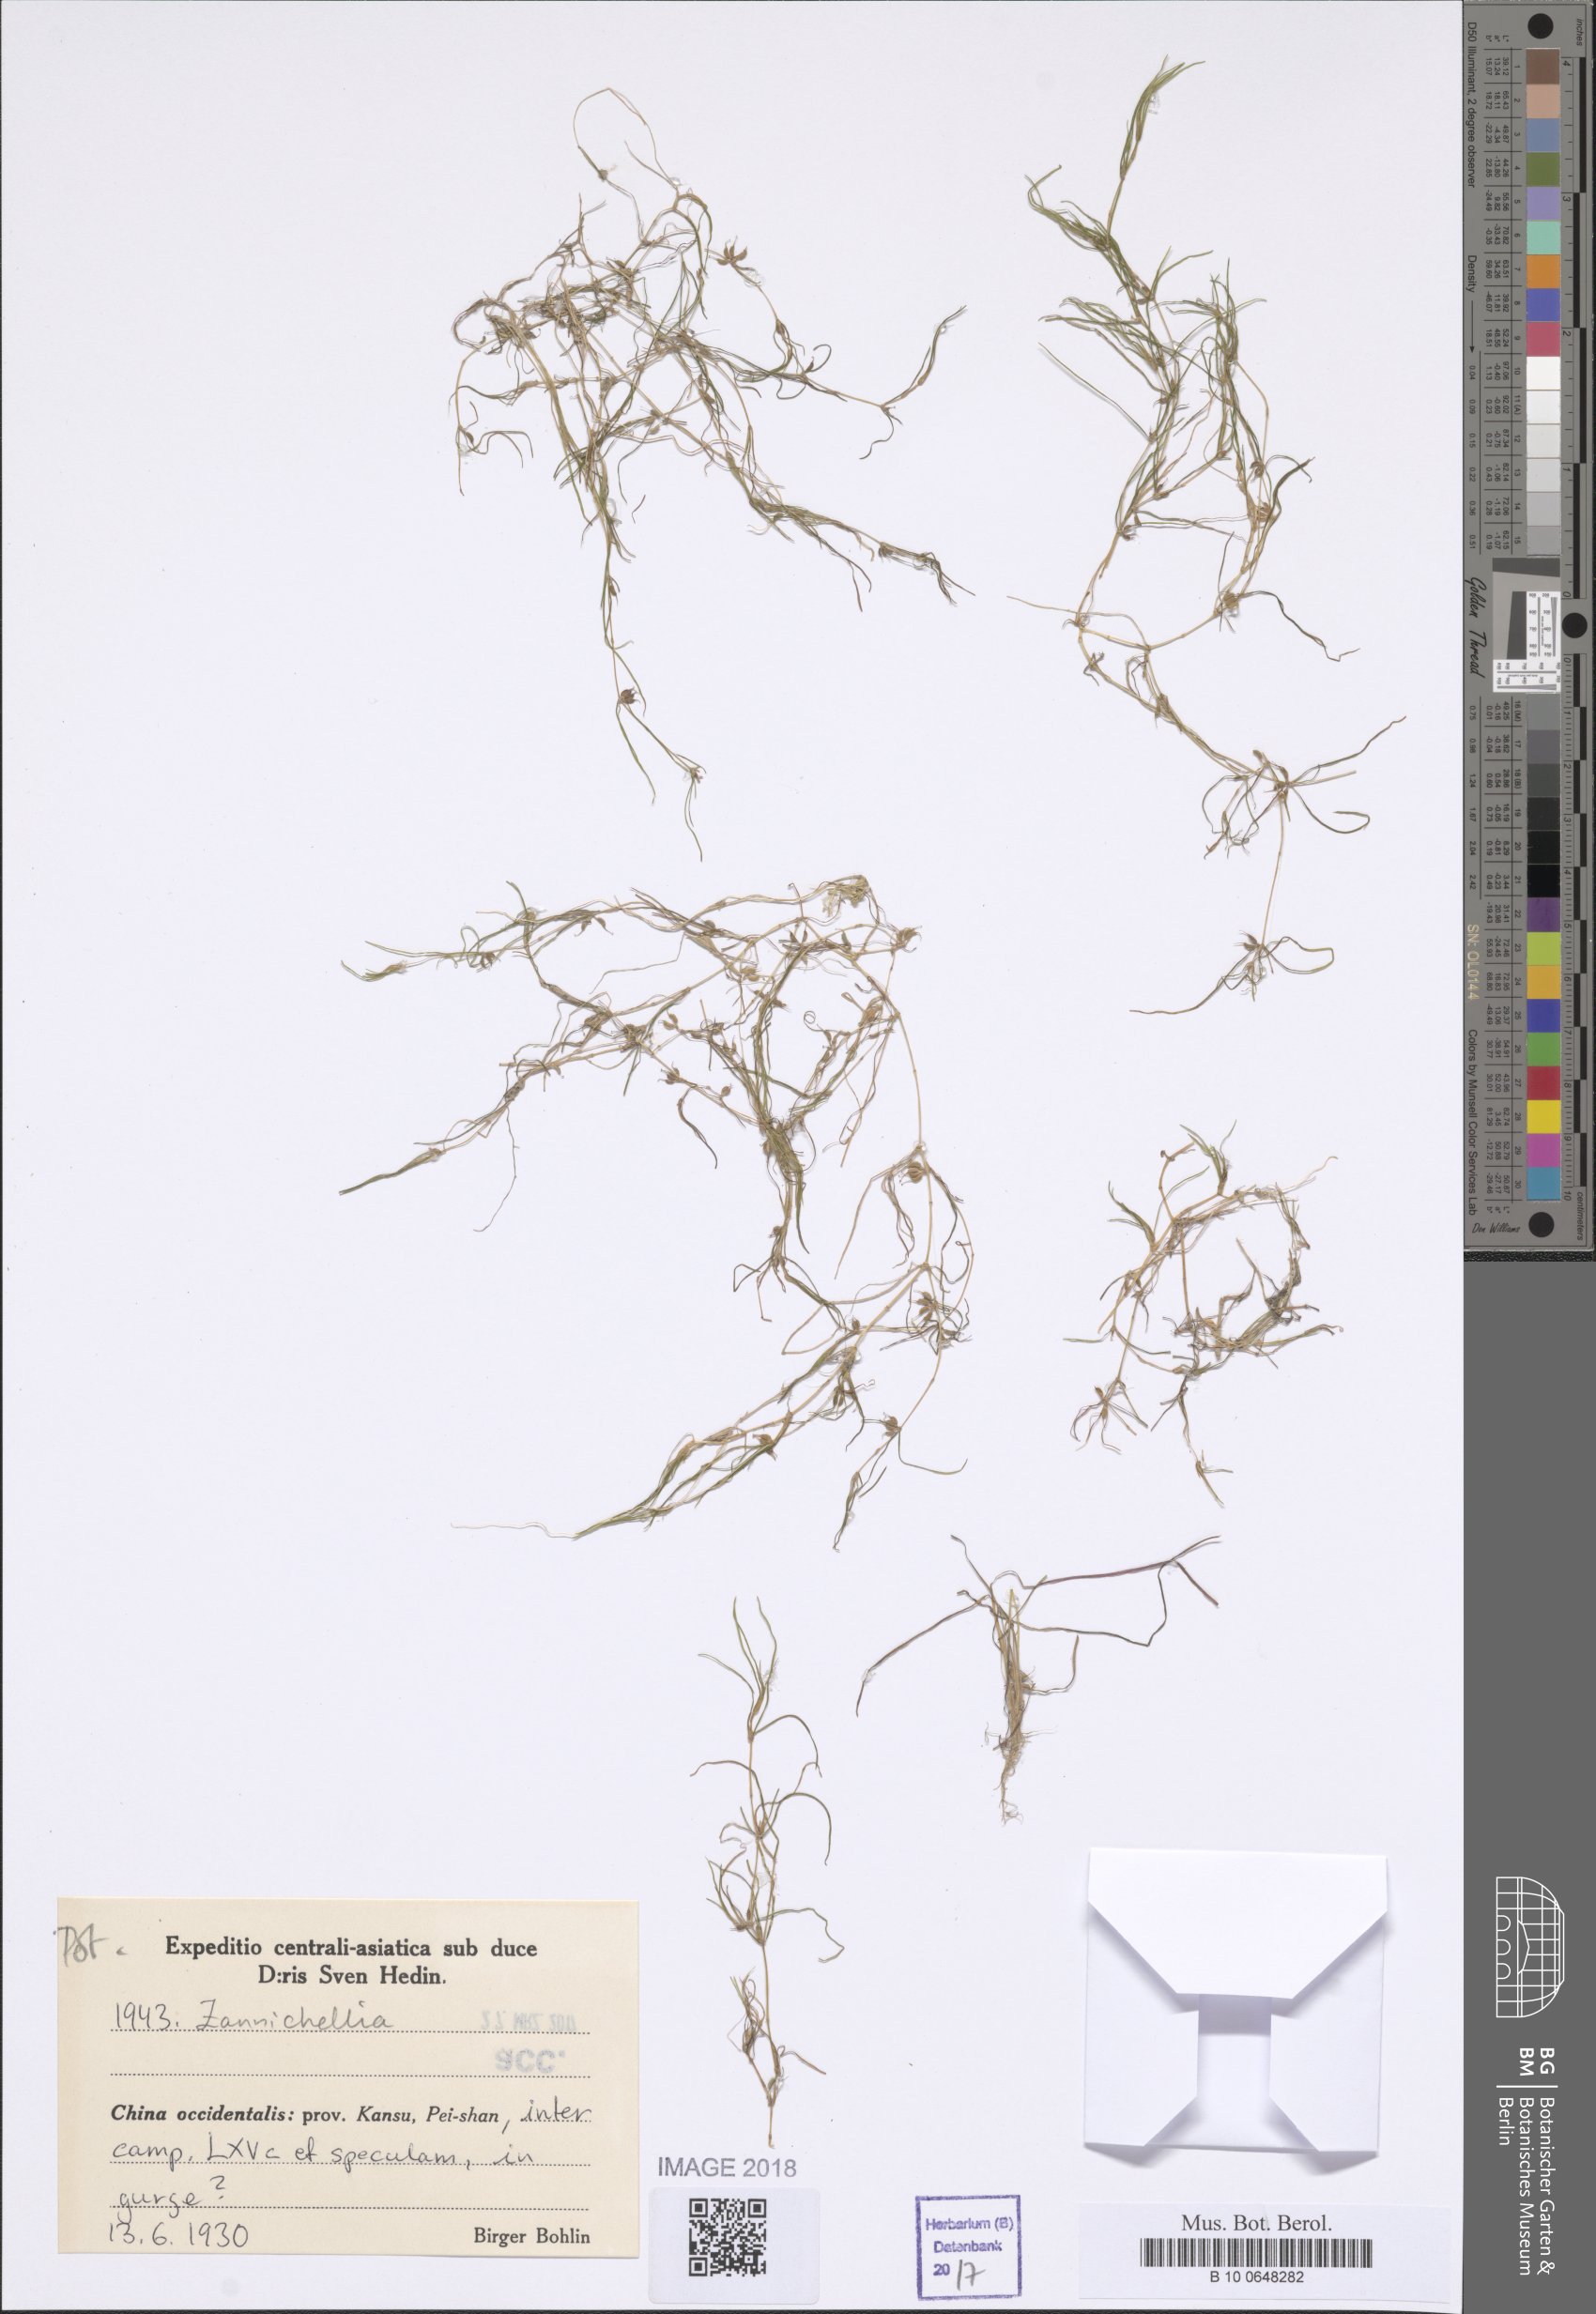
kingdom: Plantae
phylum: Tracheophyta
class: Liliopsida
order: Alismatales
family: Potamogetonaceae
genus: Zannichellia
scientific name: Zannichellia
